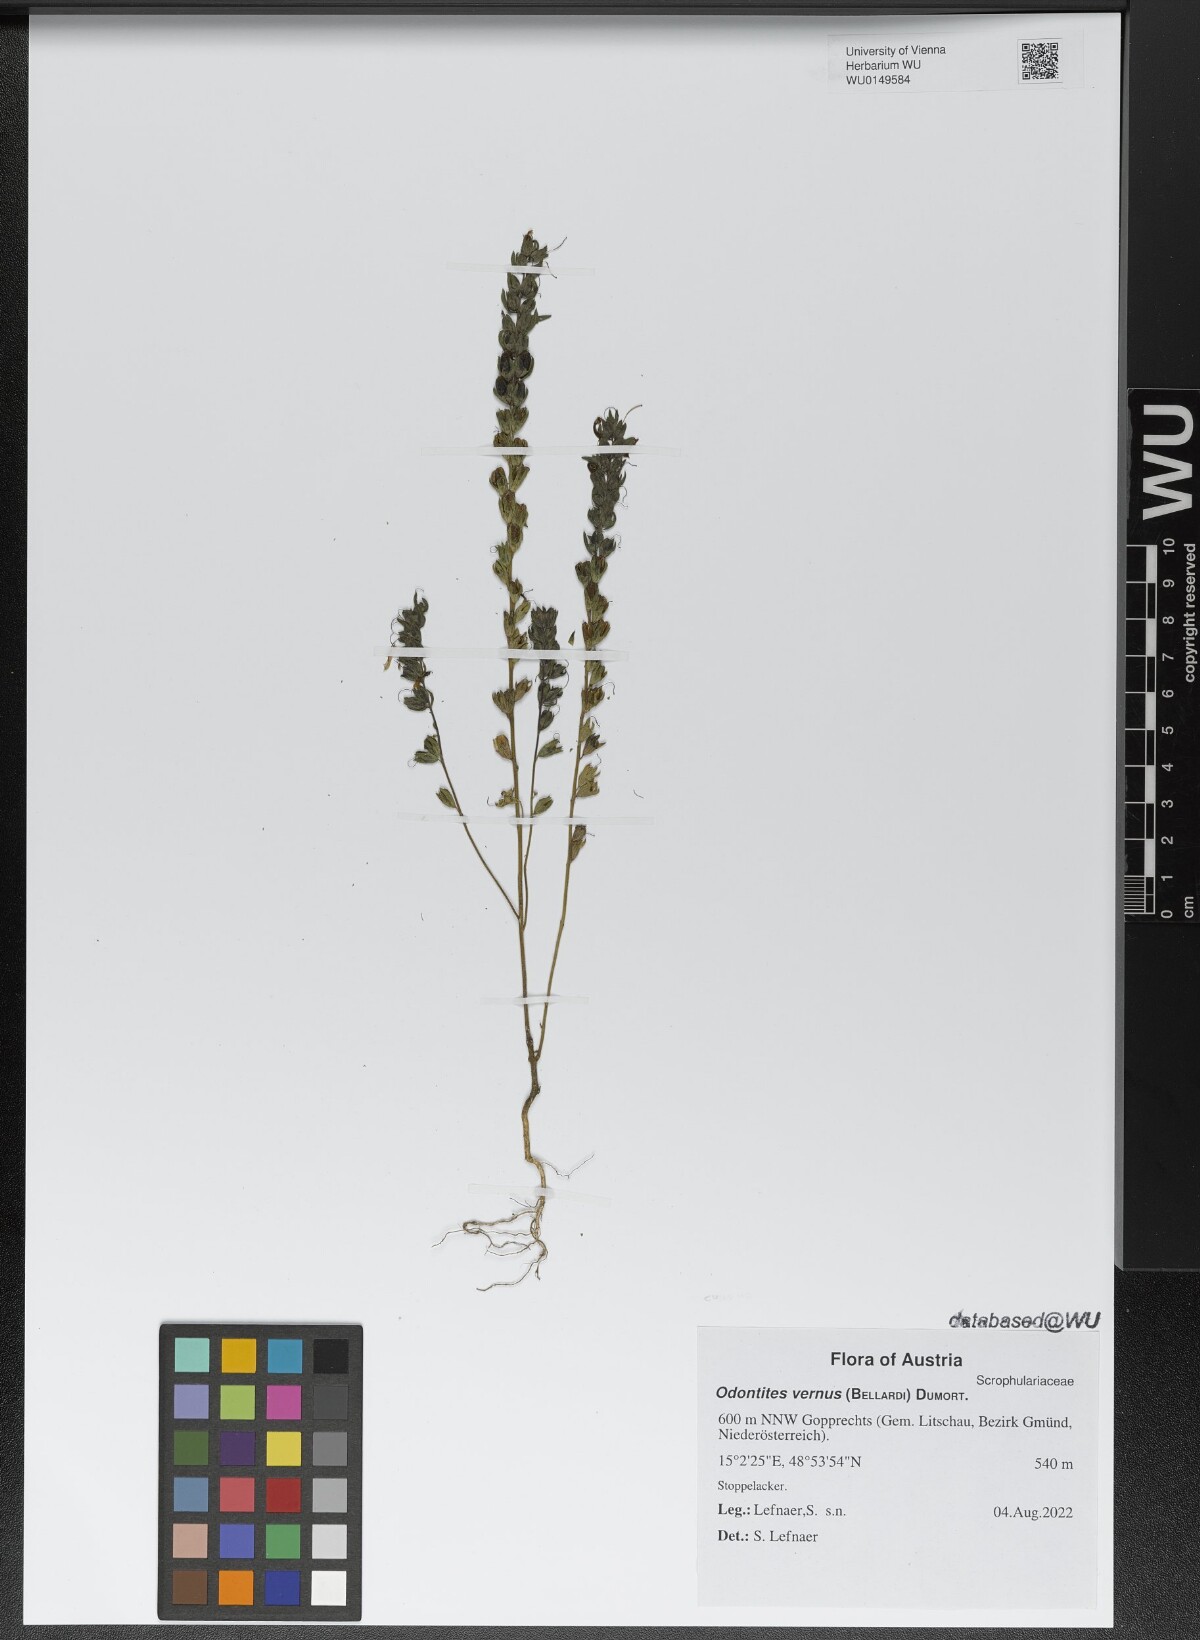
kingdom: Plantae
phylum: Tracheophyta
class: Magnoliopsida
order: Lamiales
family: Orobanchaceae
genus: Odontites
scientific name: Odontites vernus
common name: Red bartsia
